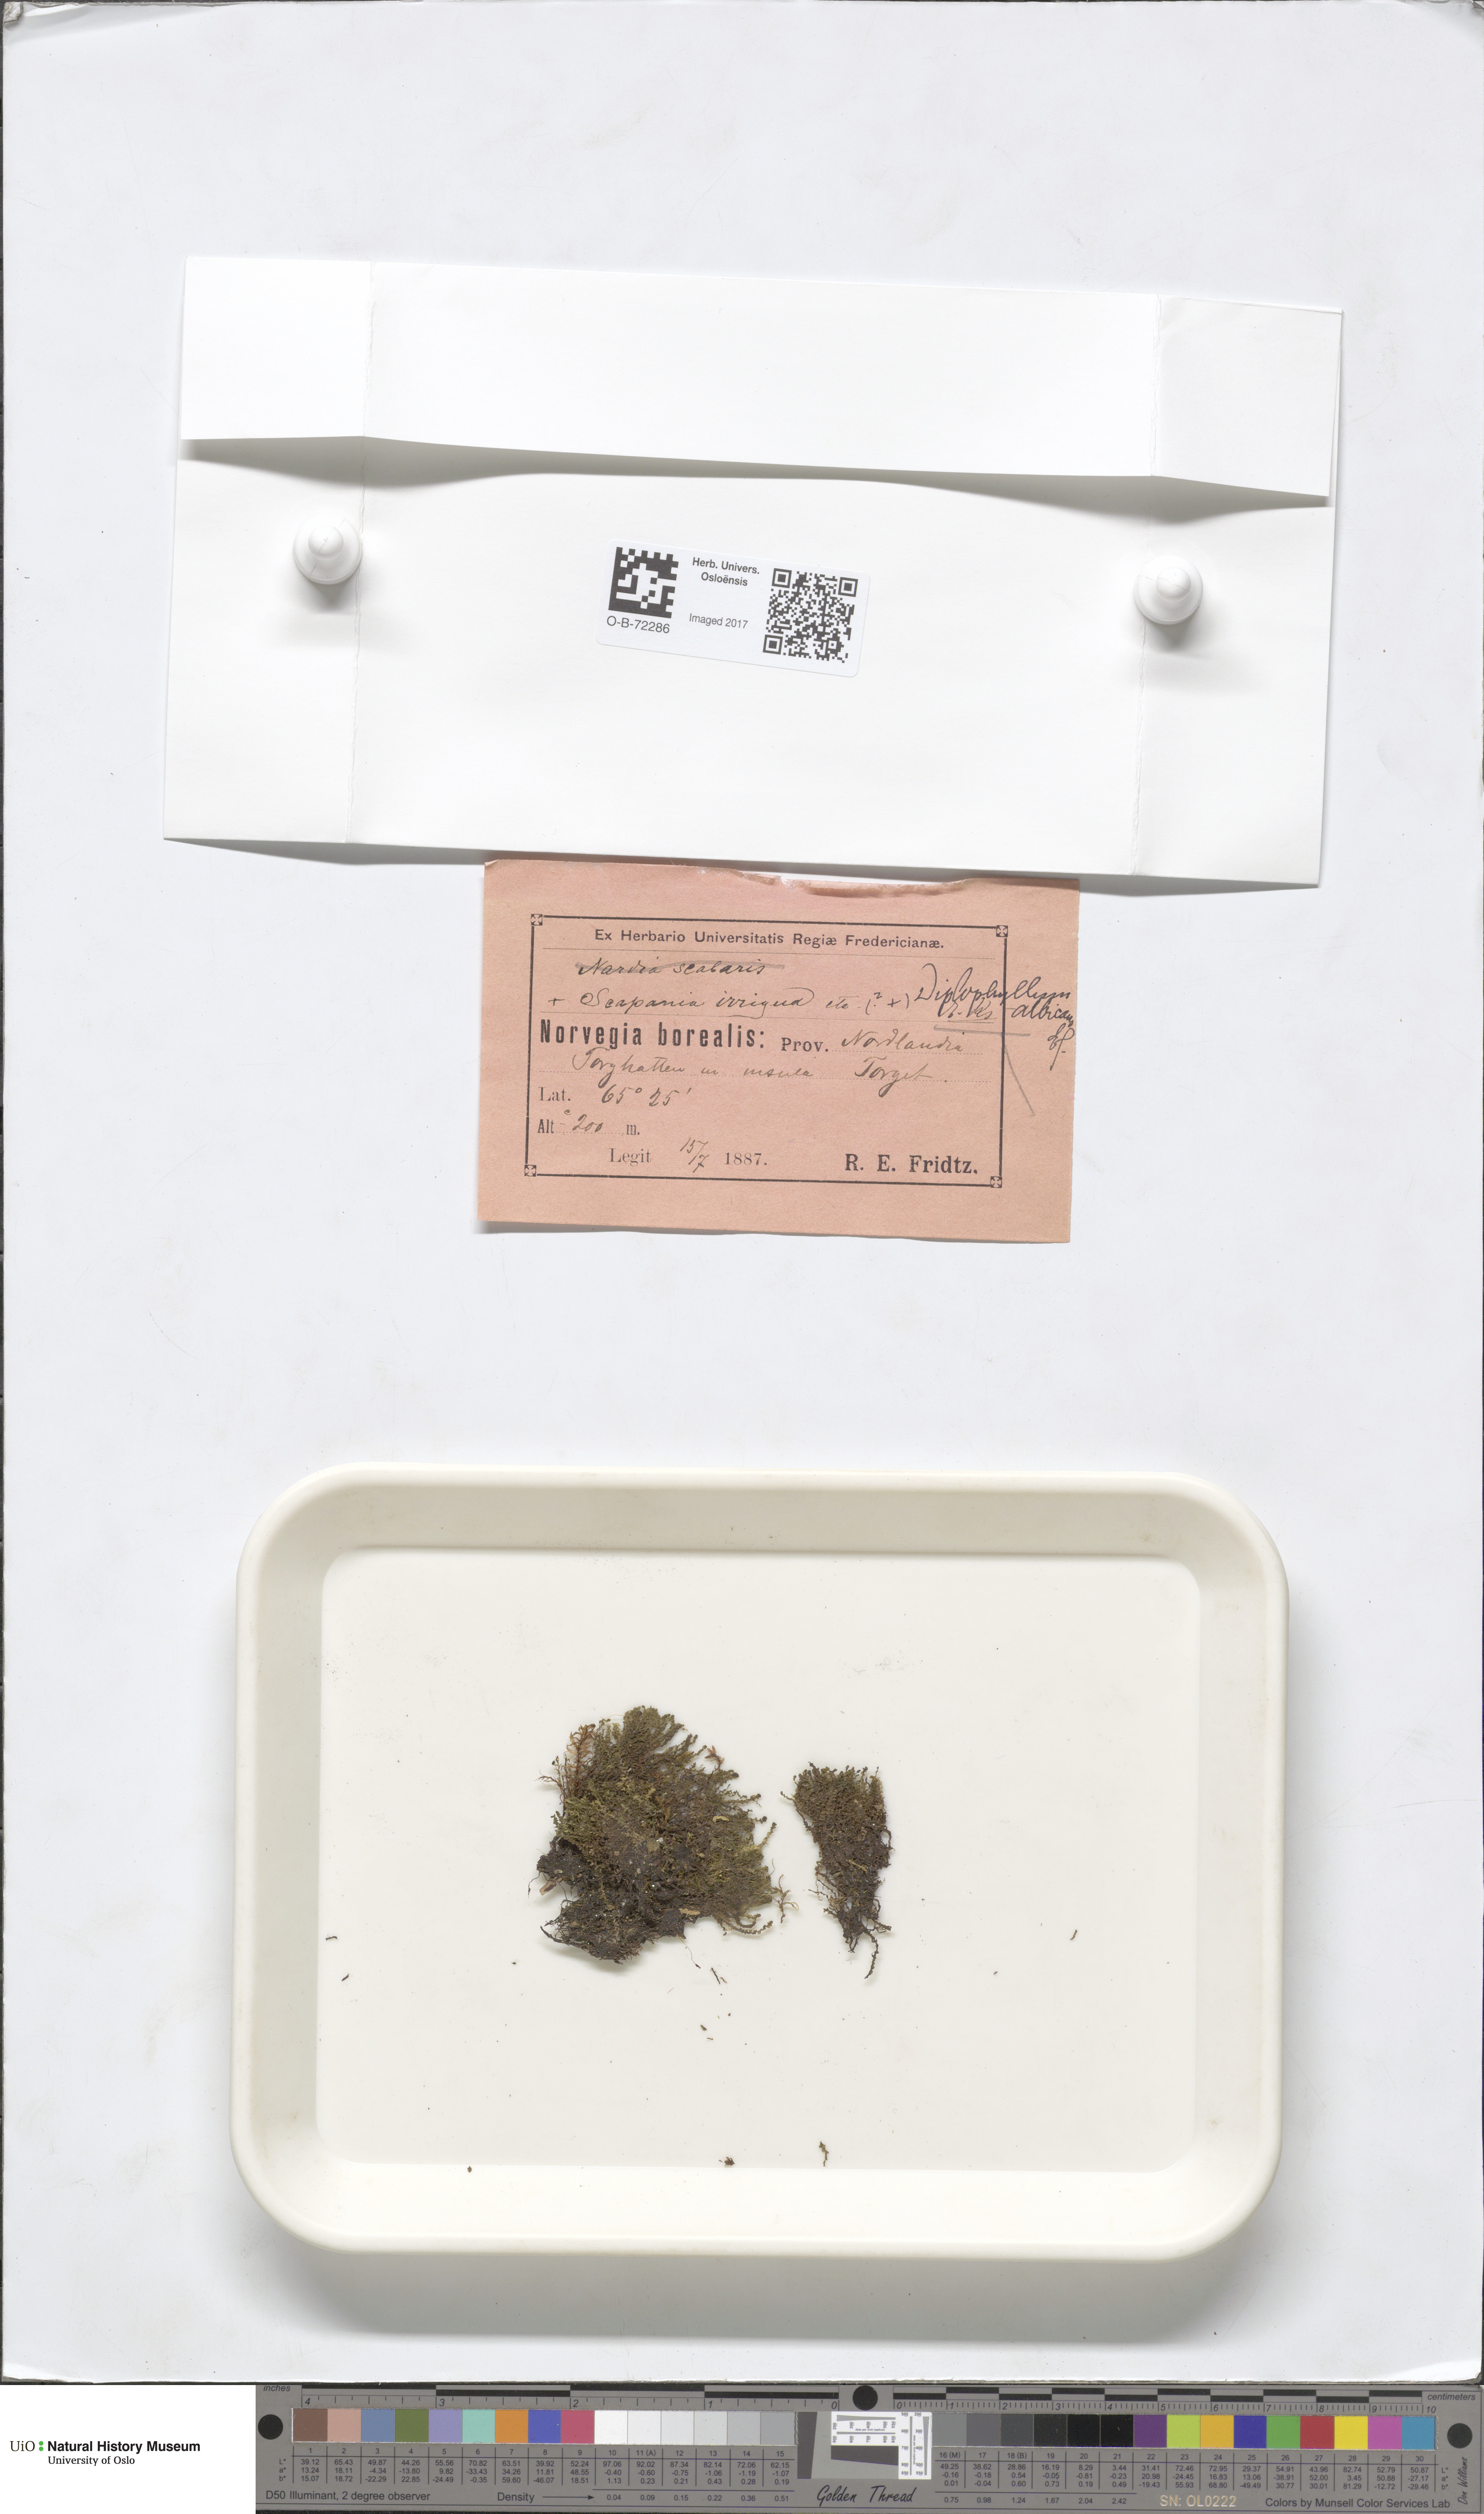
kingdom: Plantae
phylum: Marchantiophyta
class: Jungermanniopsida
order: Jungermanniales
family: Scapaniaceae
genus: Diplophyllum
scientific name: Diplophyllum albicans
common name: White earwort
